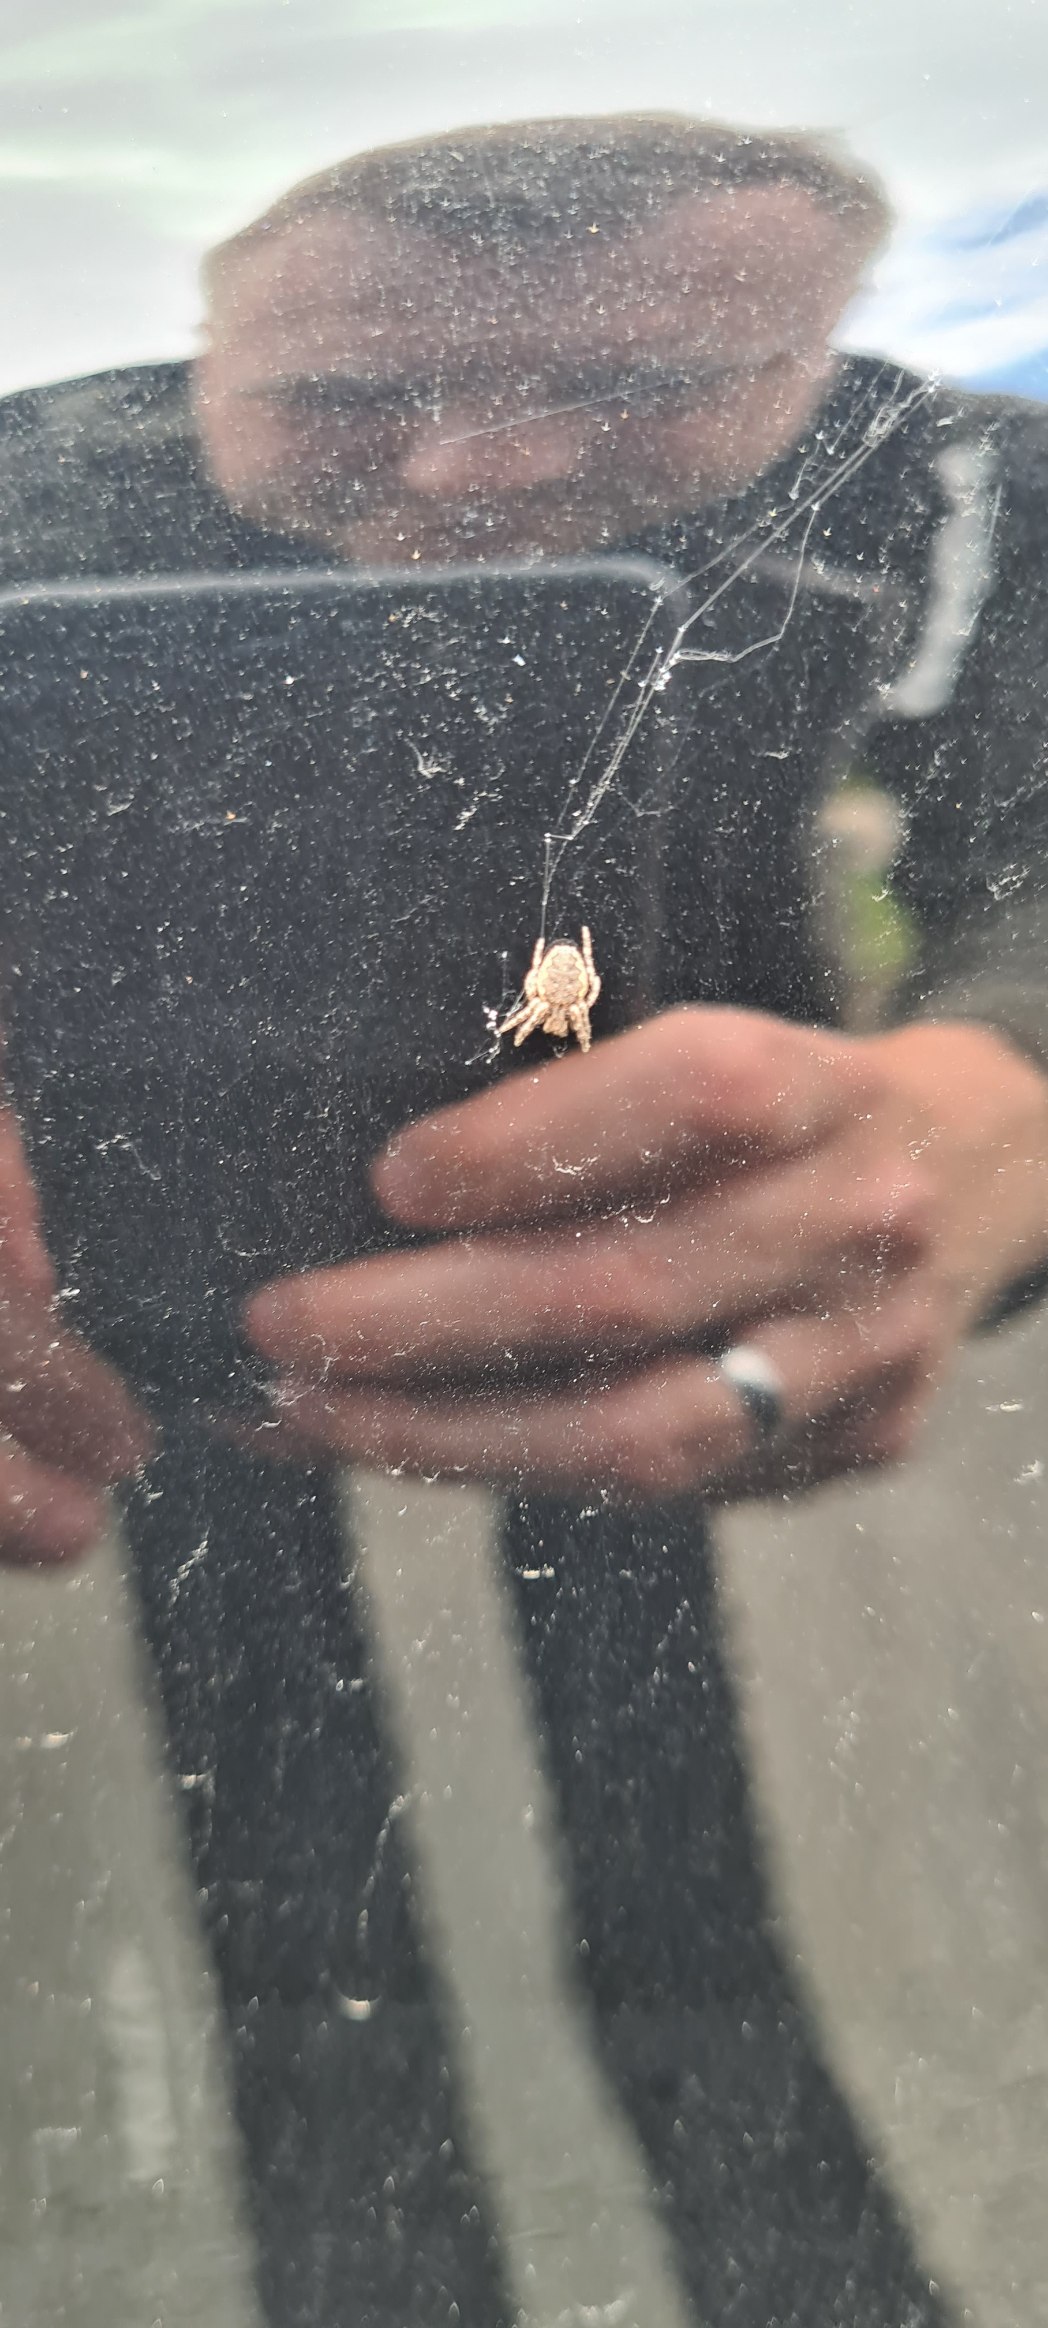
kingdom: Animalia
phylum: Arthropoda
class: Arachnida
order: Araneae
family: Araneidae
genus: Nuctenea
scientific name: Nuctenea umbratica
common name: Flad hjulspinder
